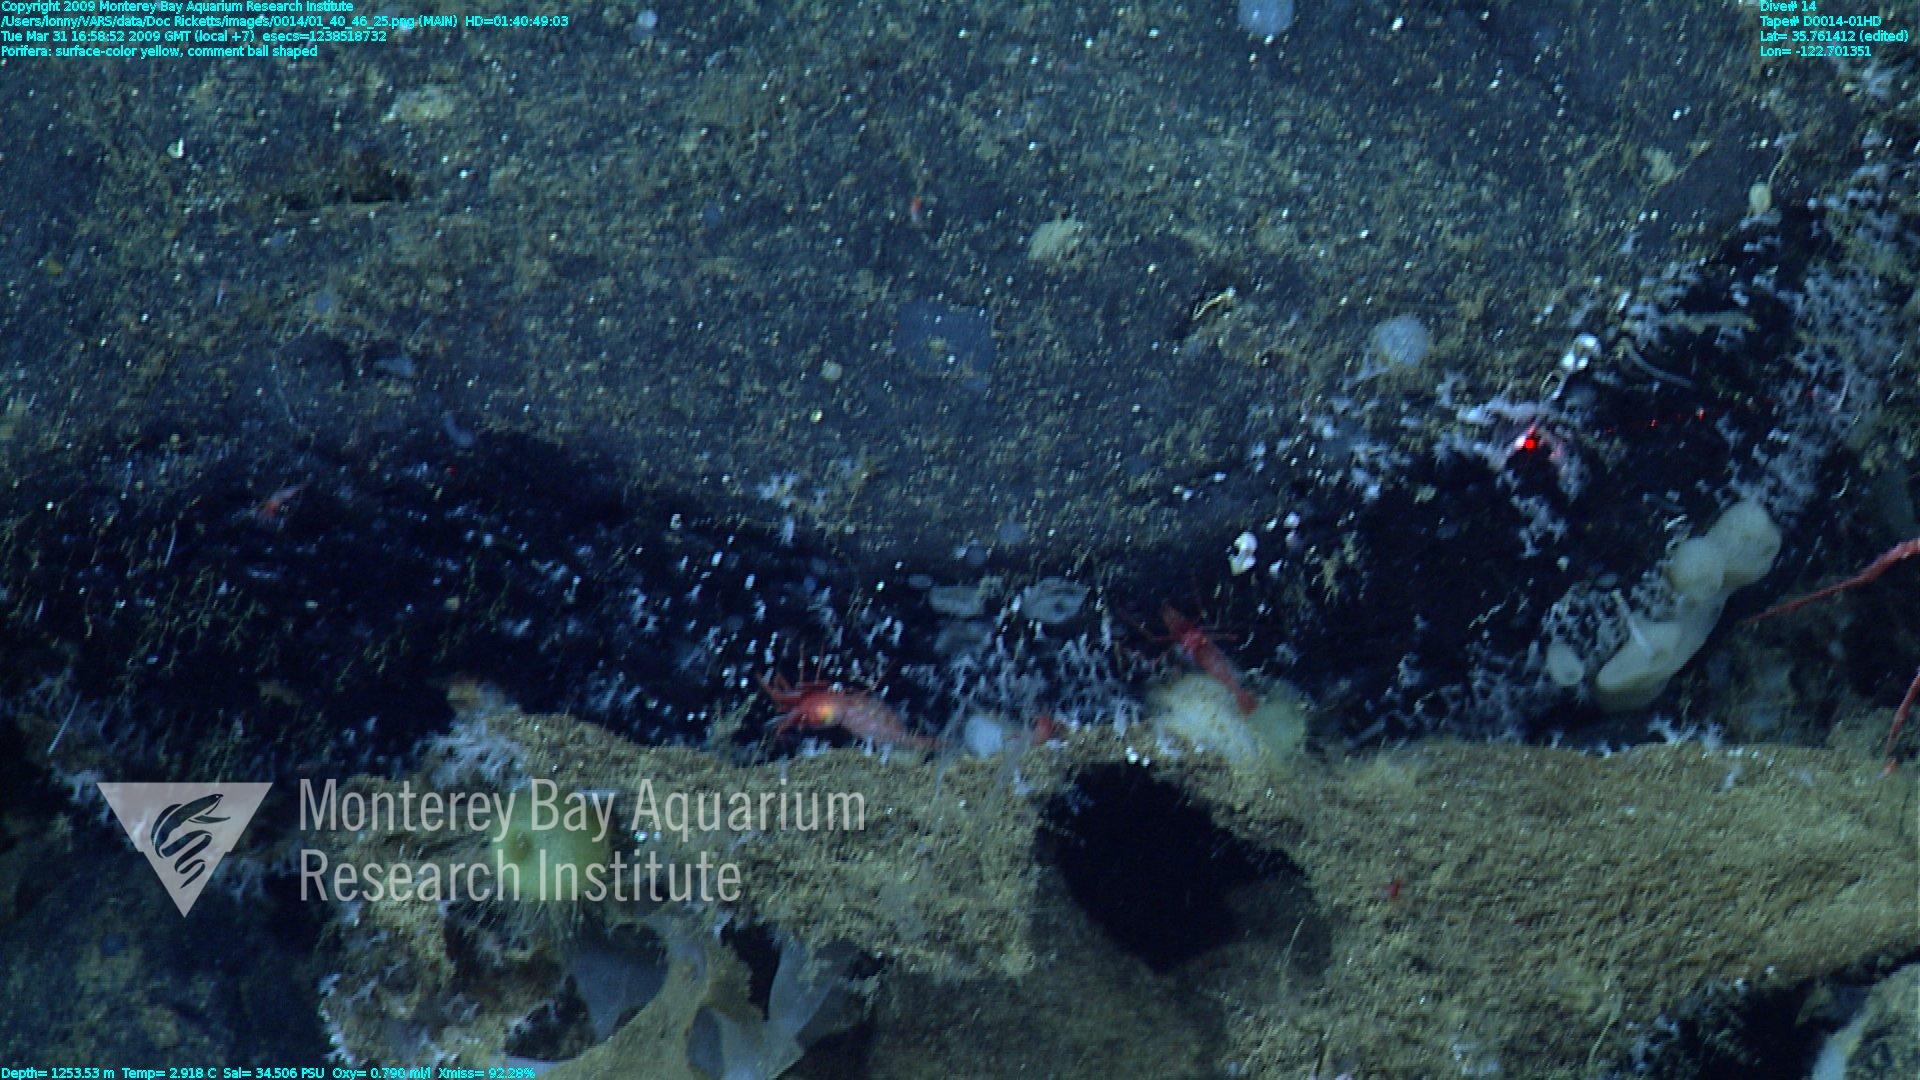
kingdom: Animalia
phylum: Porifera
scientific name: Porifera
